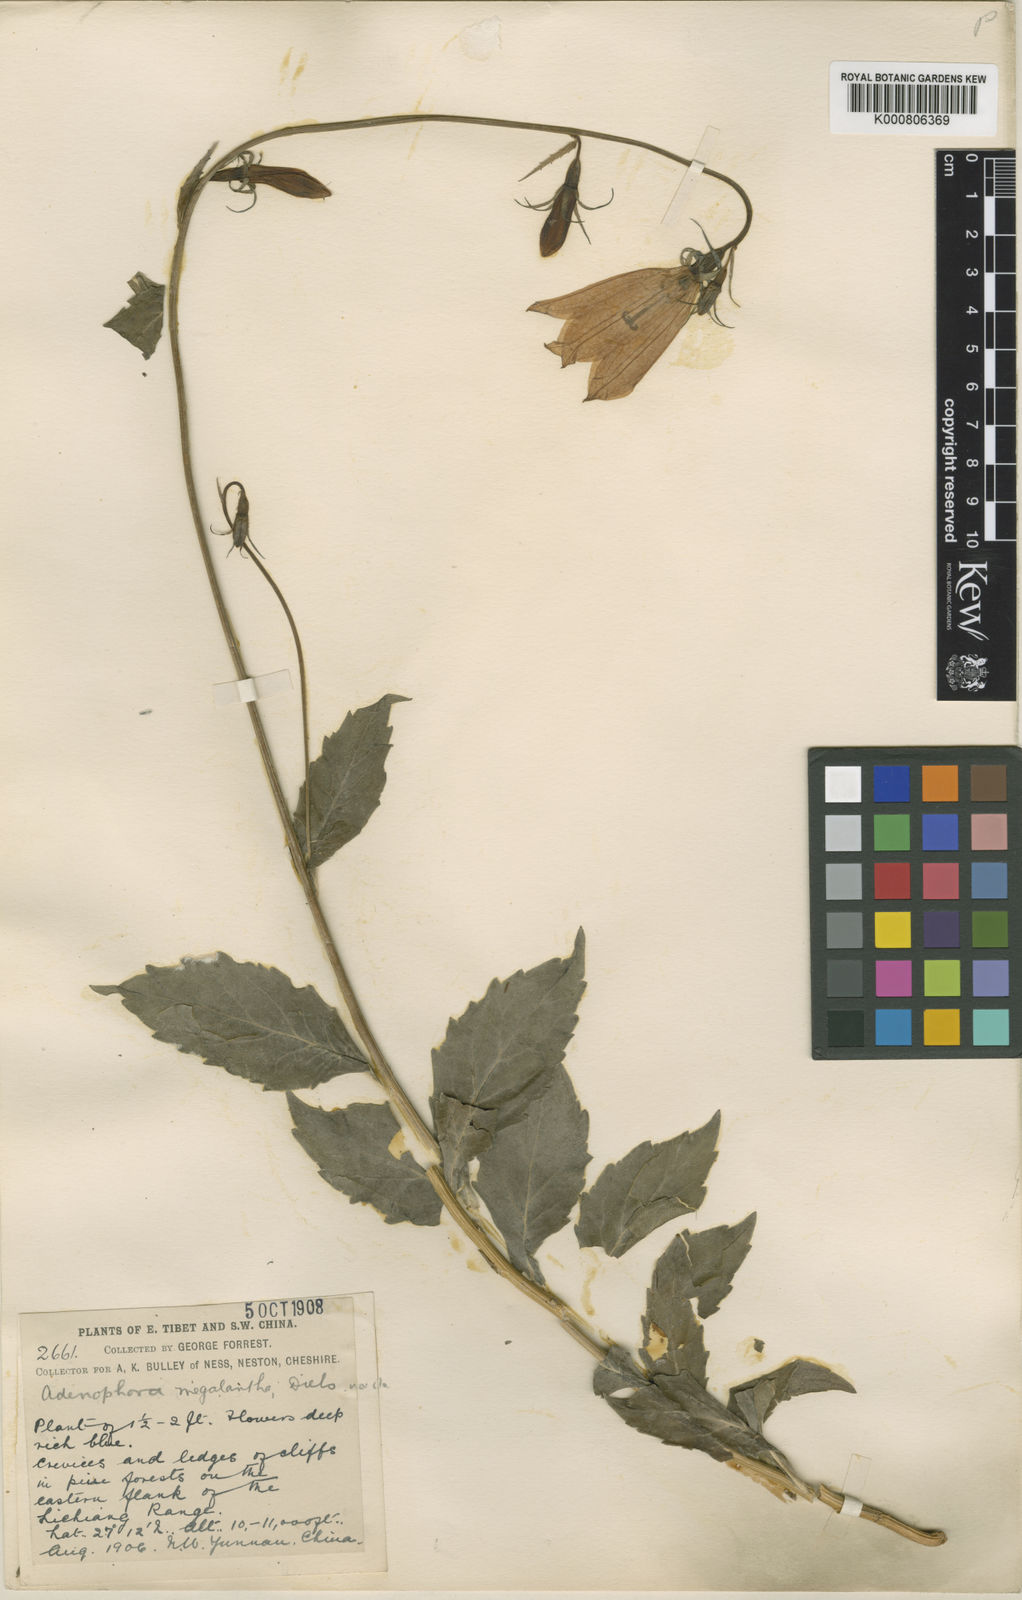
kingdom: Plantae
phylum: Tracheophyta
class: Magnoliopsida
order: Asterales
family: Campanulaceae
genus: Adenophora
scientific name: Adenophora coelestis
